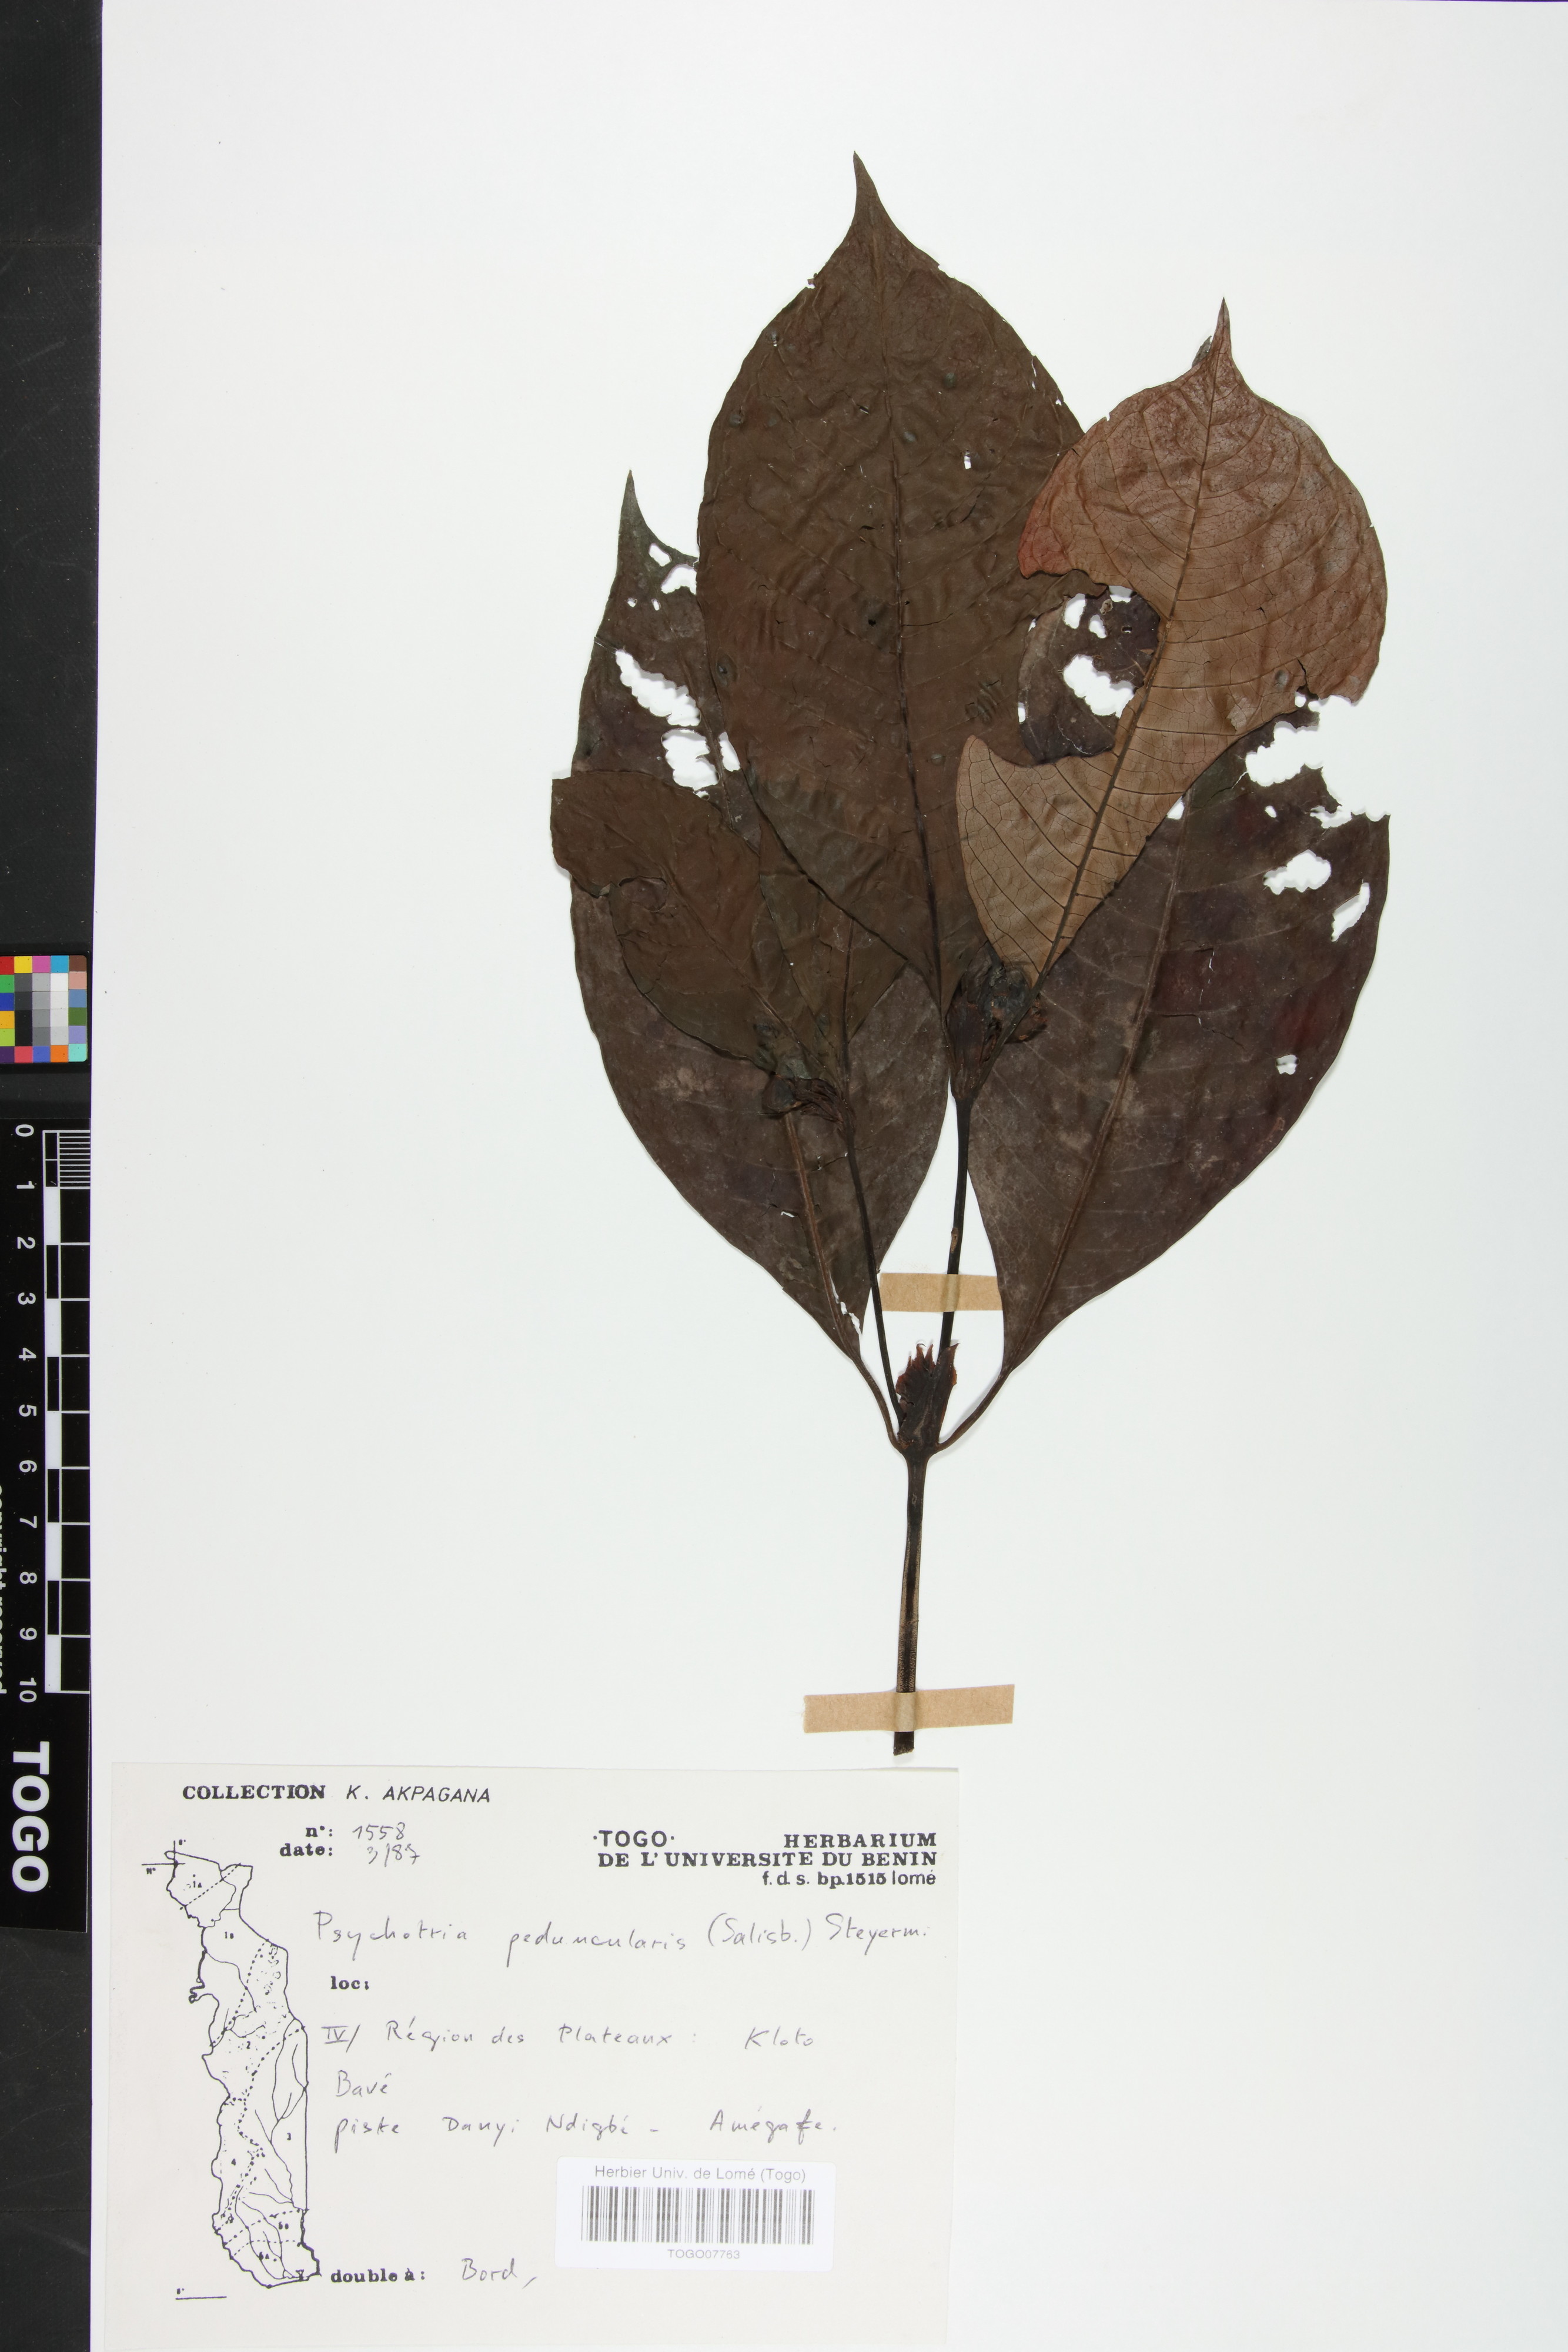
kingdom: Plantae
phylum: Tracheophyta
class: Magnoliopsida
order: Gentianales
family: Rubiaceae
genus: Psychotria
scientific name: Psychotria peduncularis
